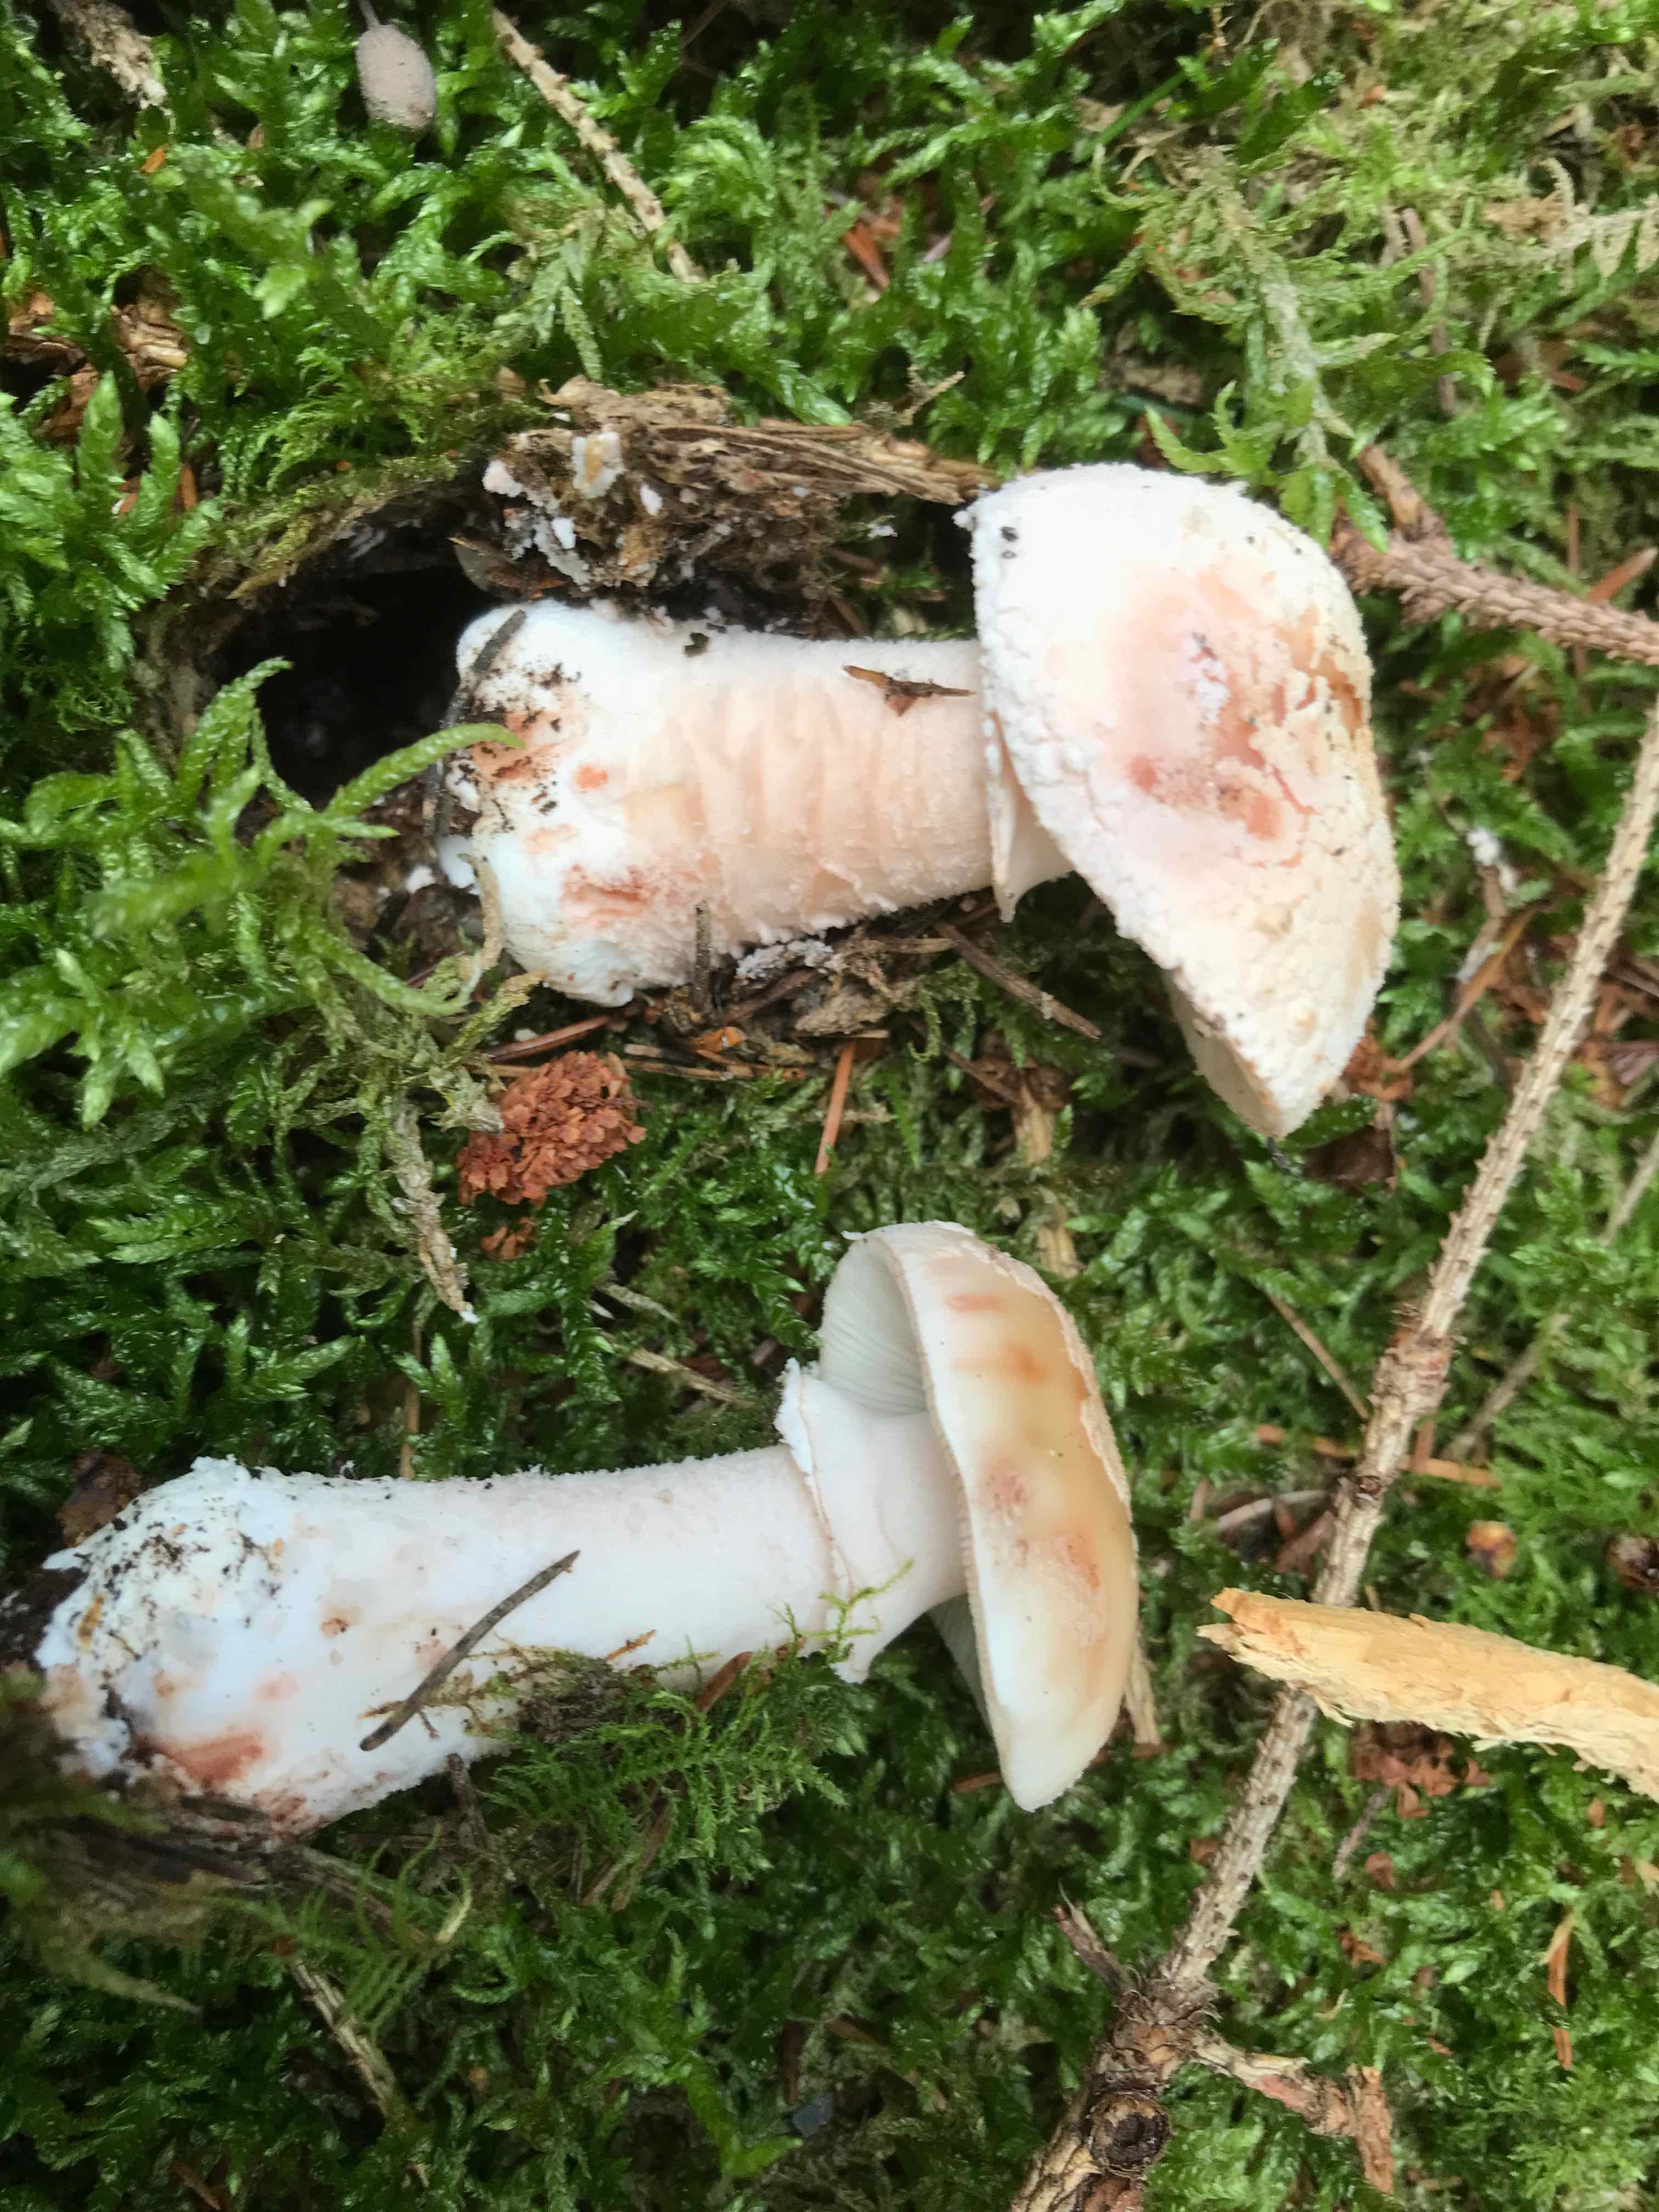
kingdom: Fungi
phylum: Basidiomycota
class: Agaricomycetes
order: Agaricales
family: Amanitaceae
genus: Amanita
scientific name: Amanita rubescens
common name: rødmende fluesvamp
